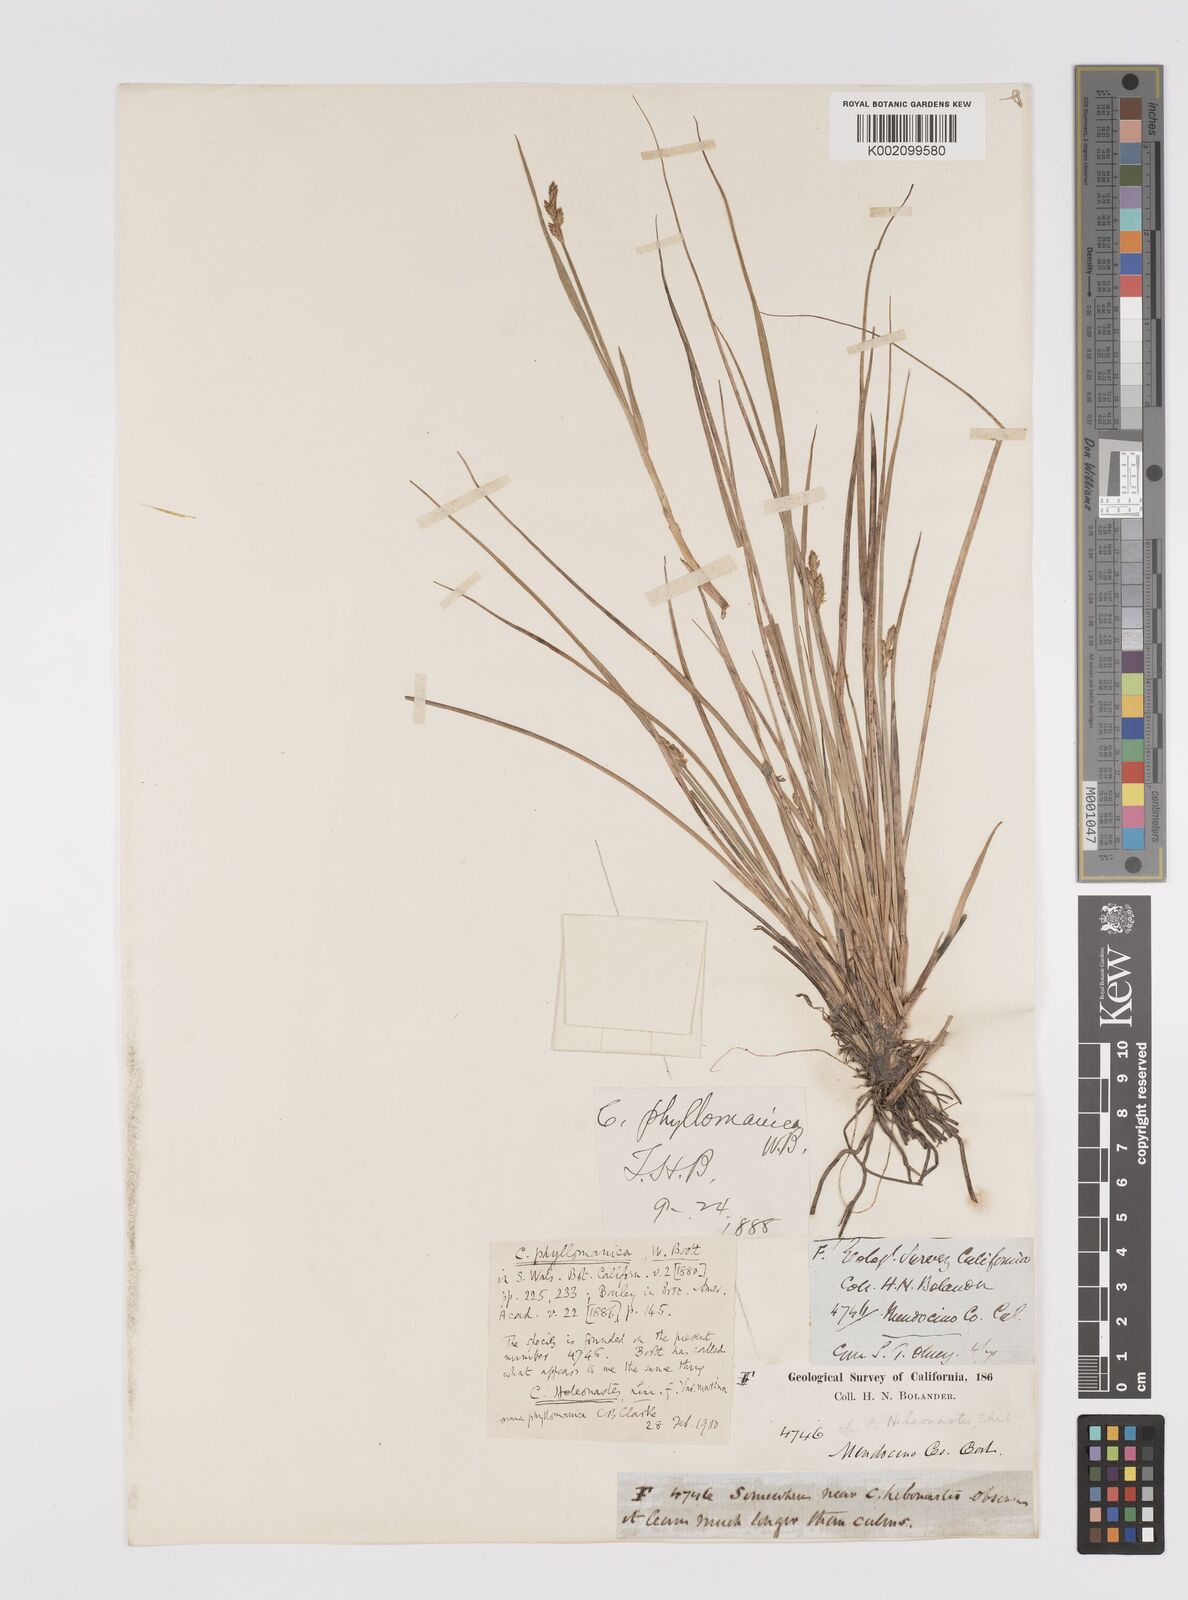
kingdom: Plantae
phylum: Tracheophyta
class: Liliopsida
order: Poales
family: Cyperaceae
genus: Carex
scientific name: Carex heleonastes
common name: Hudson bay sedge
